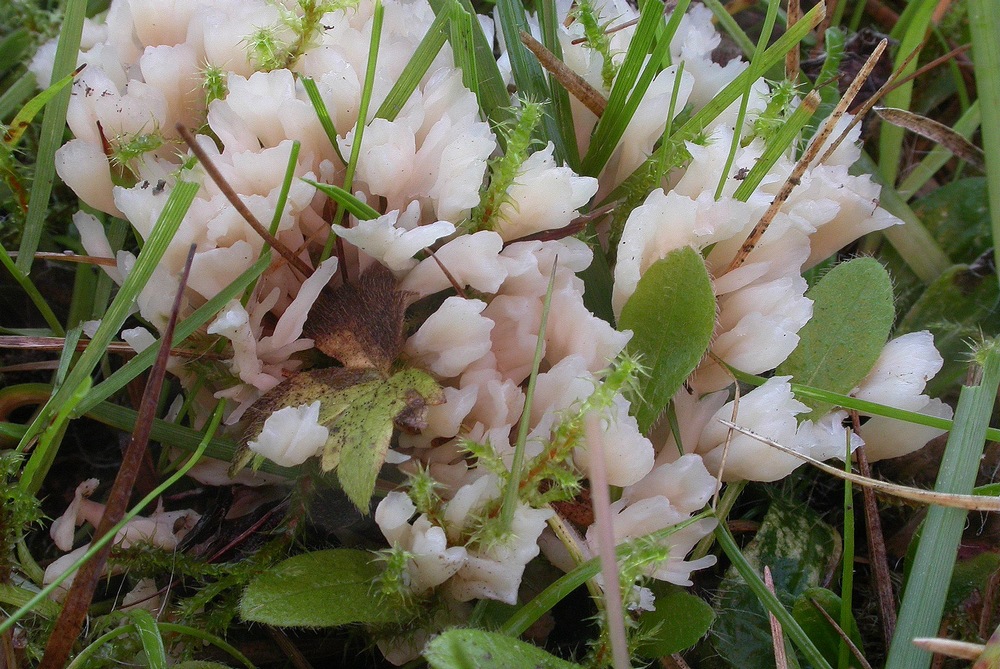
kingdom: Fungi
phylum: Basidiomycota
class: Agaricomycetes
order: Tremellodendropsidales
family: Tremellodendropsidaceae
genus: Tremellodendropsis
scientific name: Tremellodendropsis tuberosa
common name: bævrekølle
